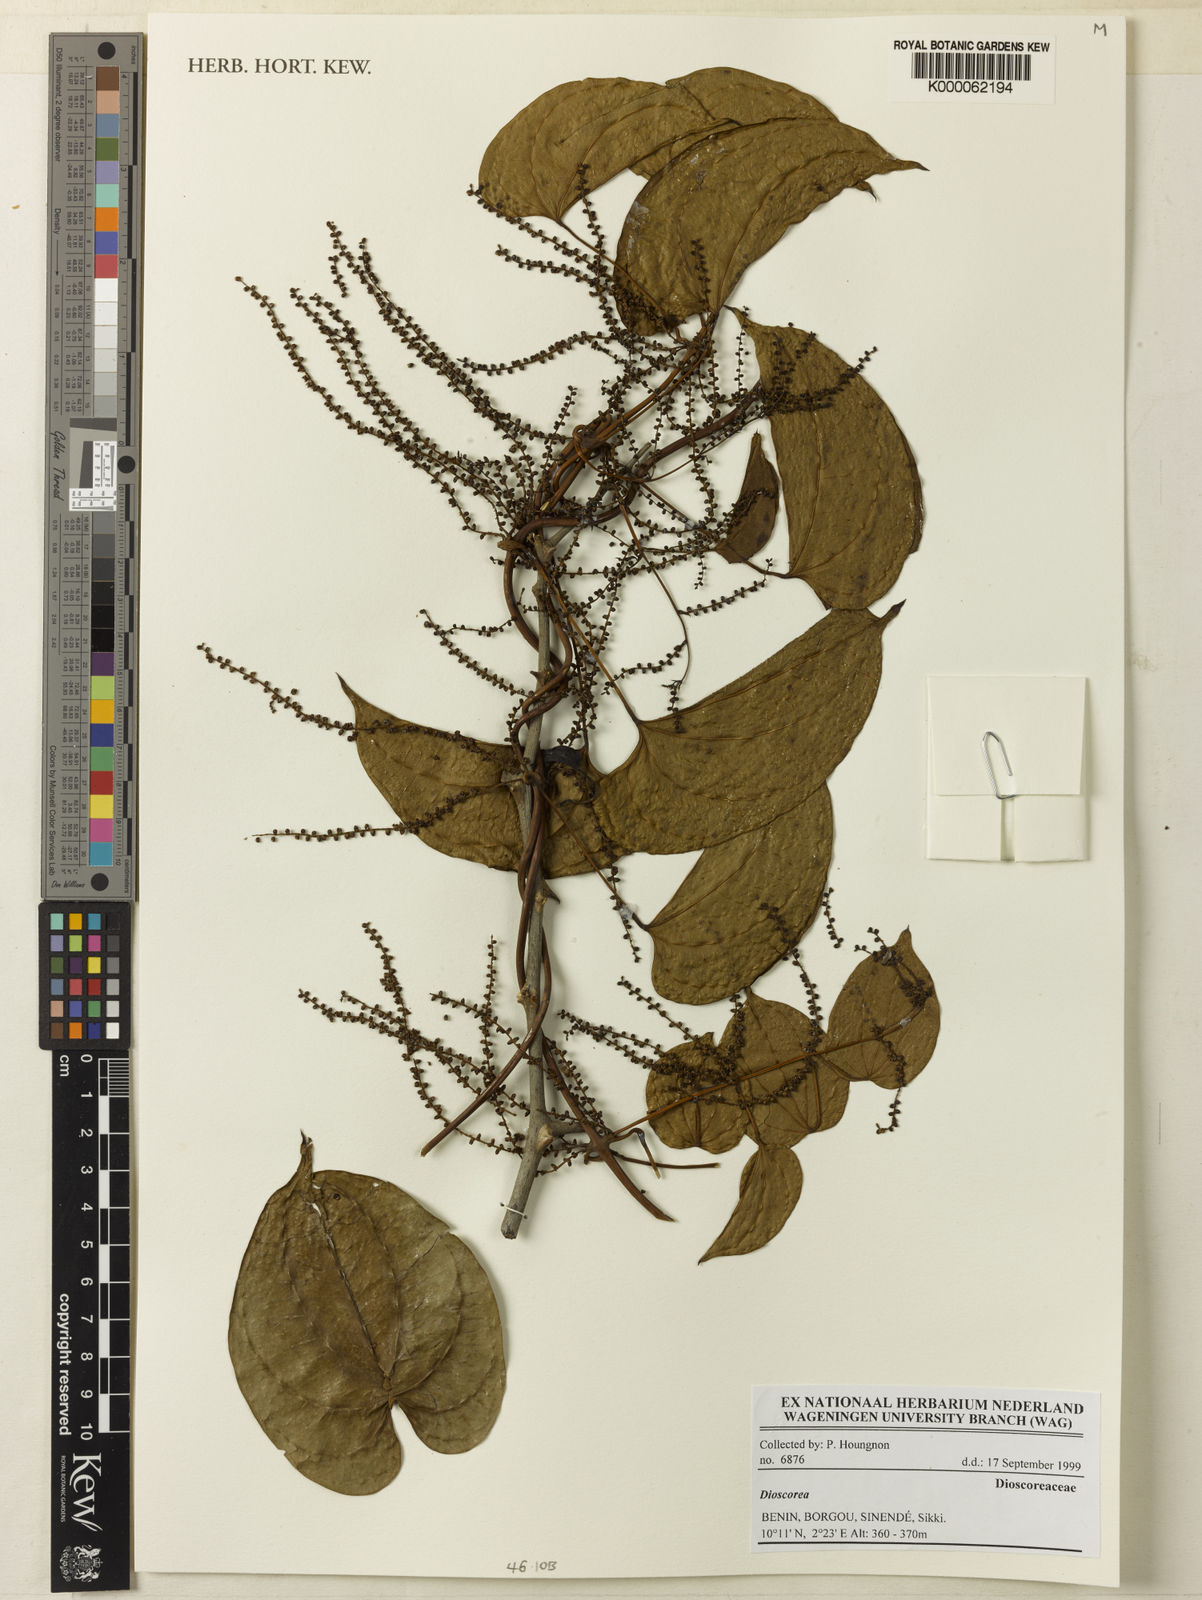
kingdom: Plantae
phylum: Tracheophyta
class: Liliopsida
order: Dioscoreales
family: Dioscoreaceae
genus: Dioscorea
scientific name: Dioscorea
